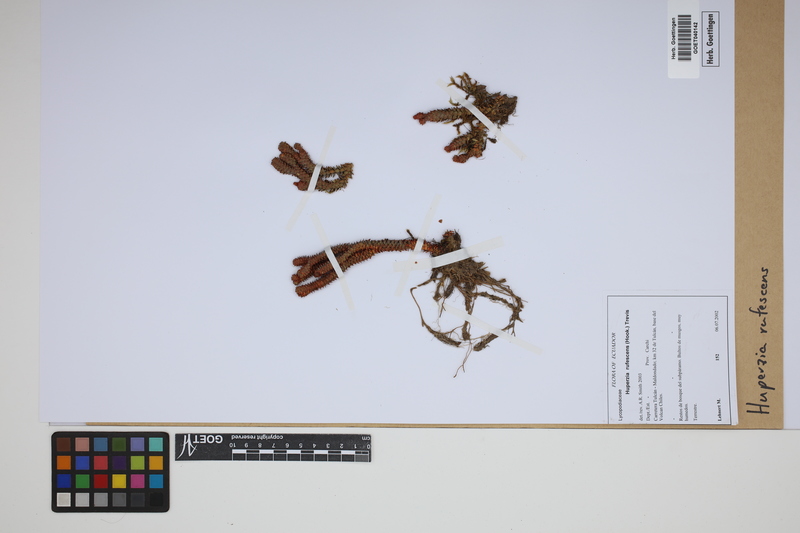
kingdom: Plantae
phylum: Tracheophyta
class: Lycopodiopsida
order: Lycopodiales
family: Lycopodiaceae
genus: Phlegmariurus
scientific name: Phlegmariurus rufescens
